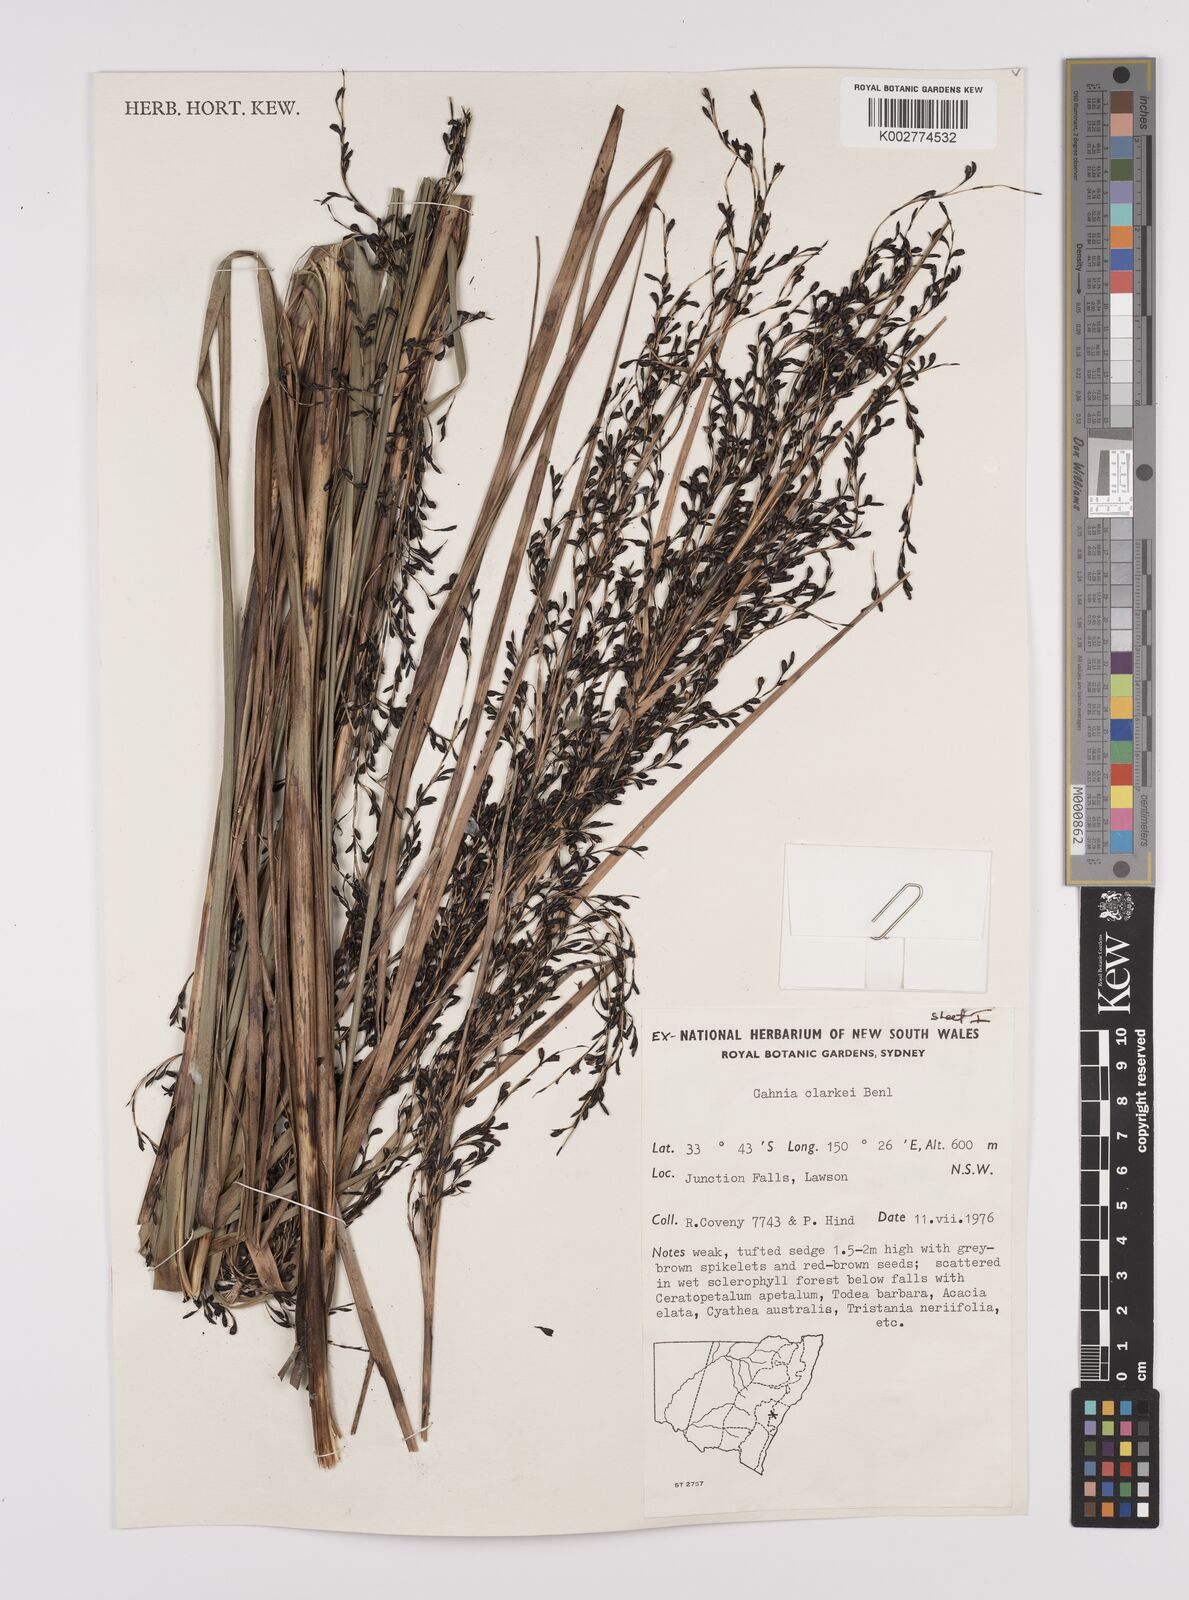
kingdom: Plantae
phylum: Tracheophyta
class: Liliopsida
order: Poales
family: Cyperaceae
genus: Gahnia
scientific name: Gahnia clarkei
